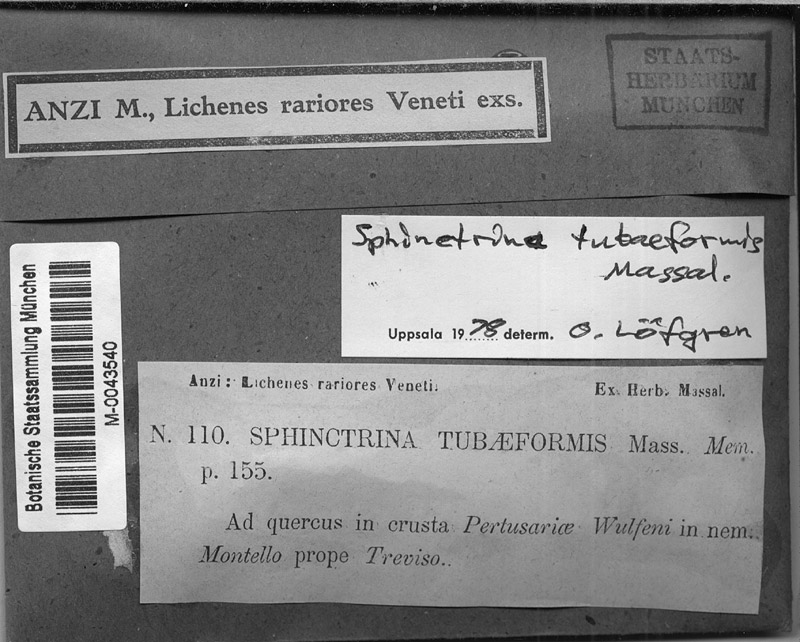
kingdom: Fungi
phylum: Ascomycota
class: Lecanoromycetes
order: Pertusariales
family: Pertusariaceae
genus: Pertusaria
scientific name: Pertusaria hymenea
